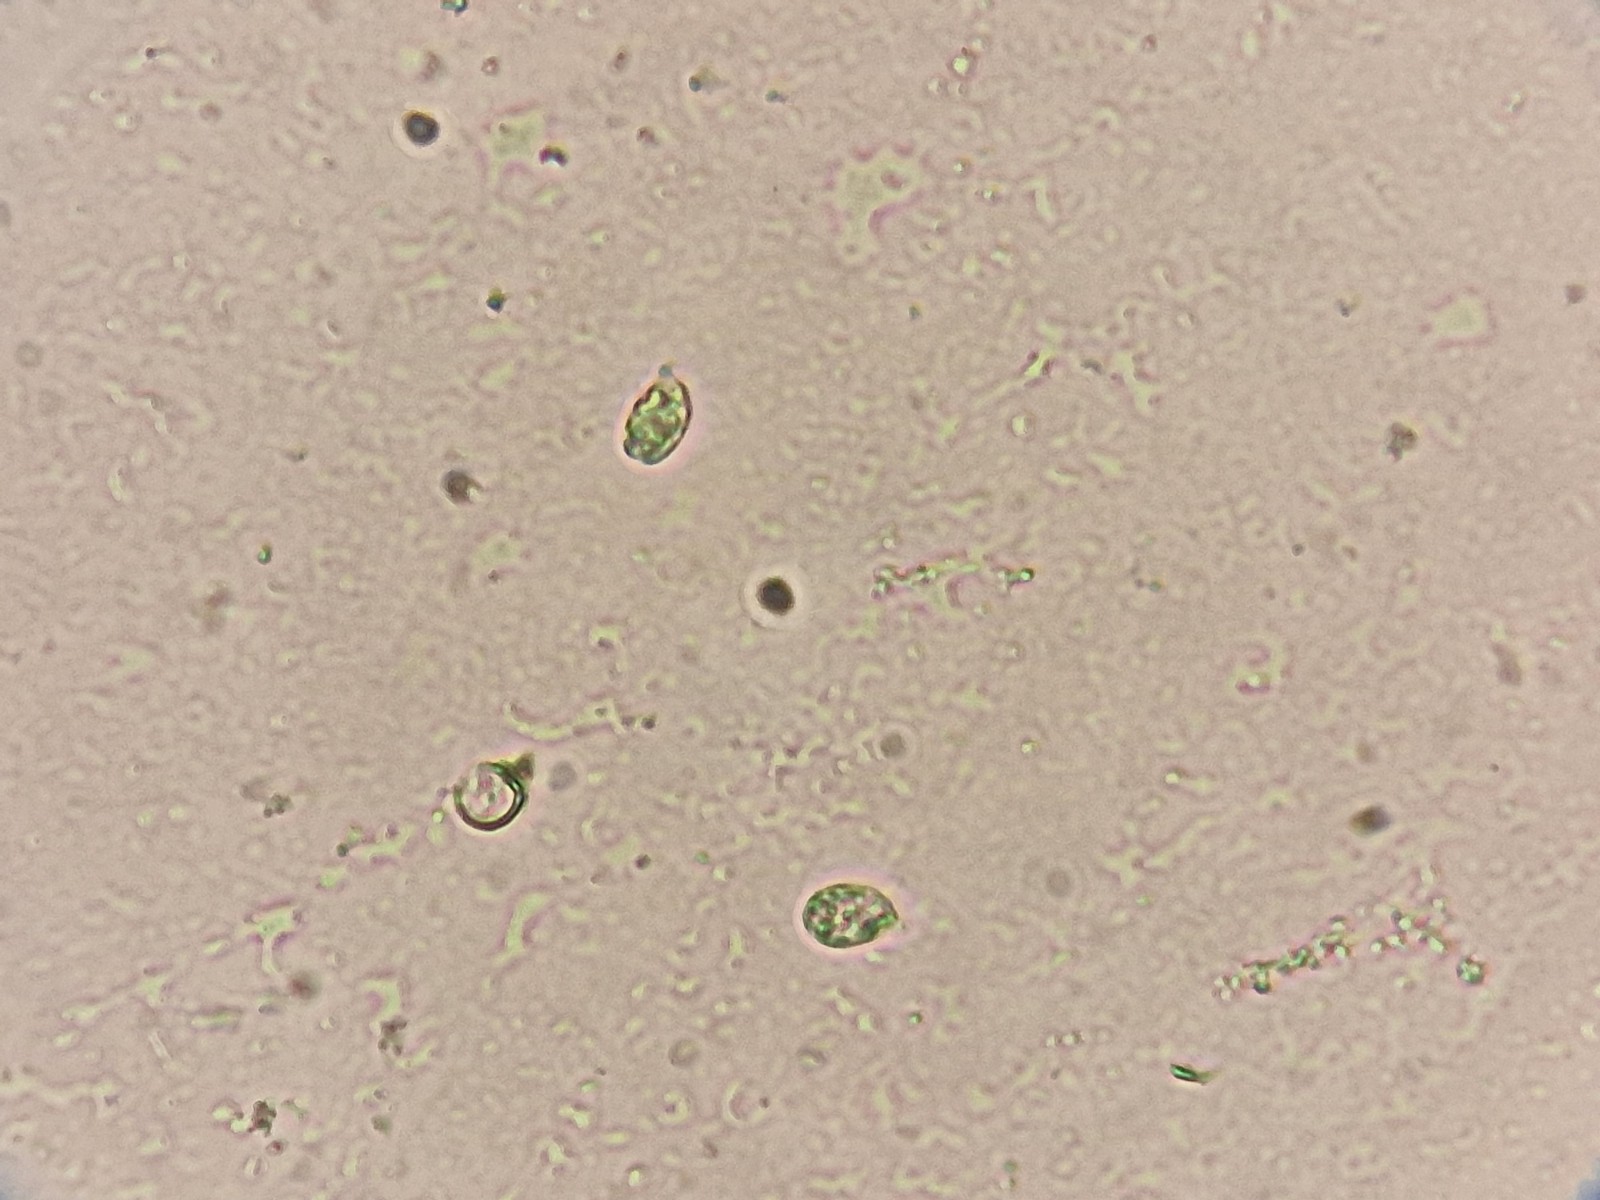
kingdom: Fungi
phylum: Basidiomycota
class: Agaricomycetes
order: Agaricales
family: Tricholomataceae
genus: Dermoloma
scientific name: Dermoloma
